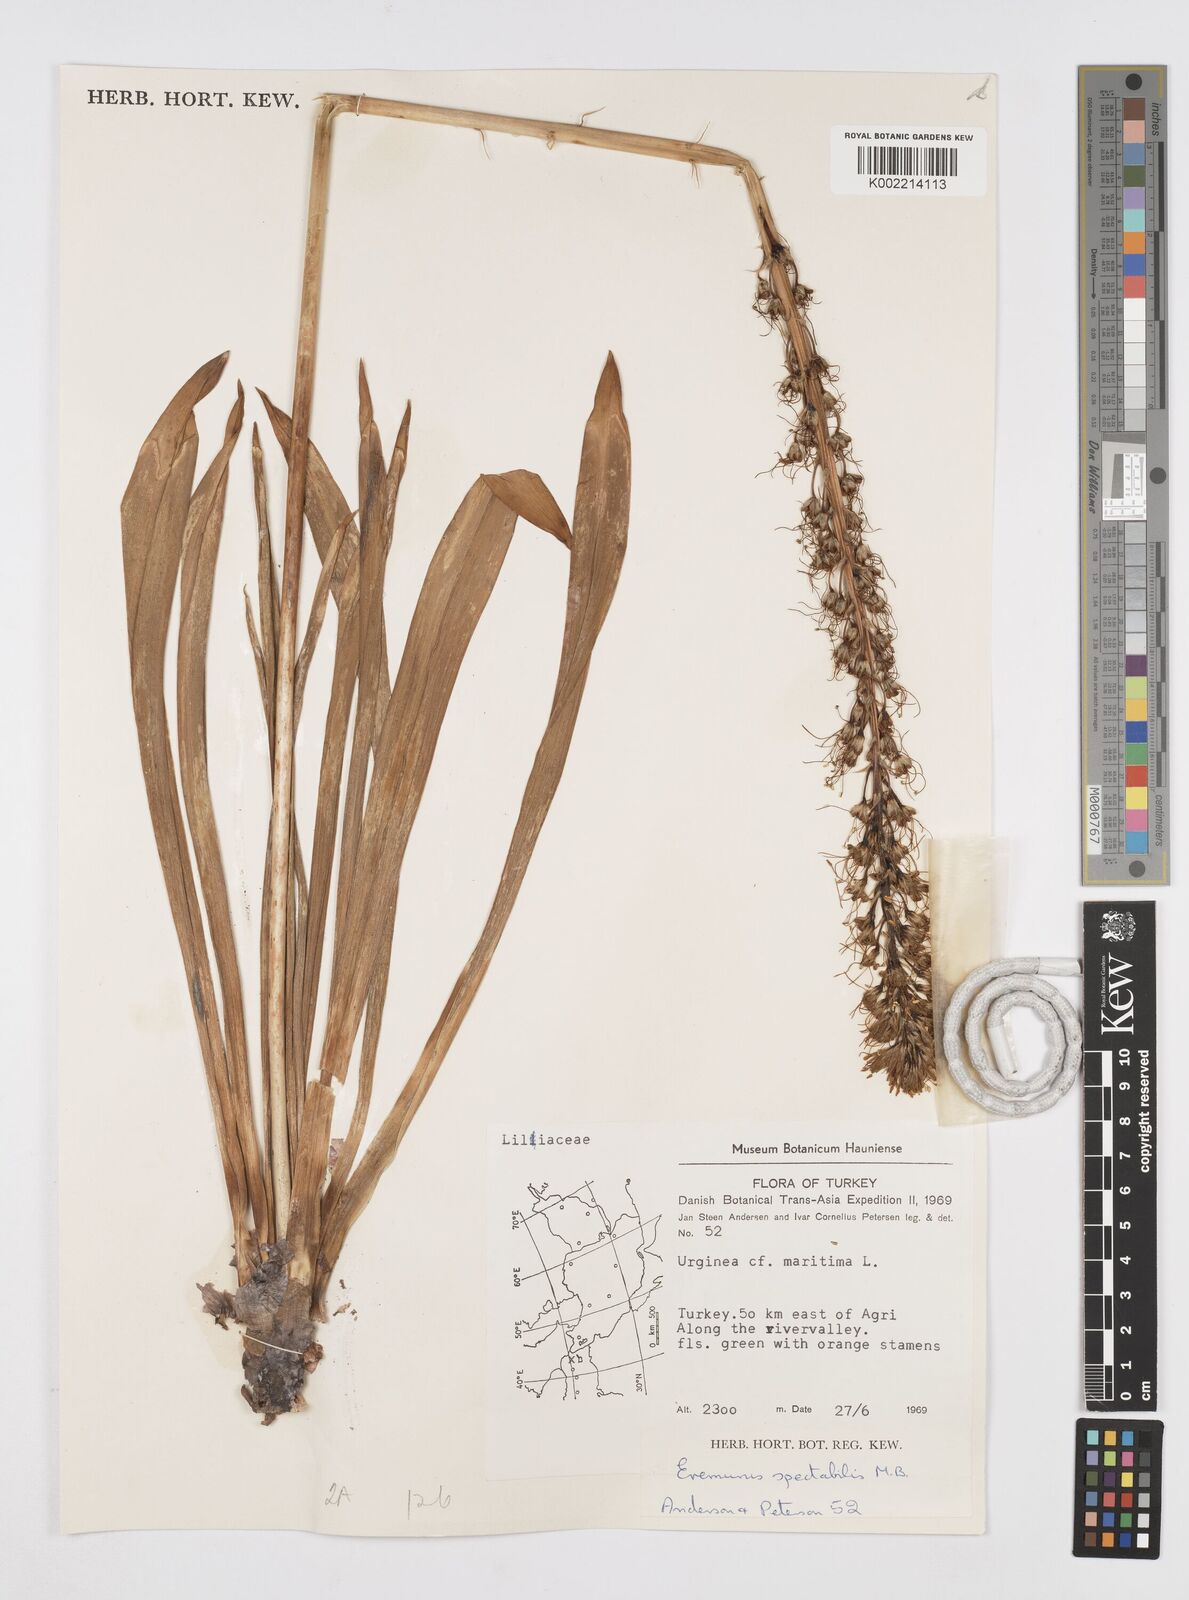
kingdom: Plantae
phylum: Tracheophyta
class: Liliopsida
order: Asparagales
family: Asphodelaceae
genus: Eremurus
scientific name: Eremurus spectabilis
